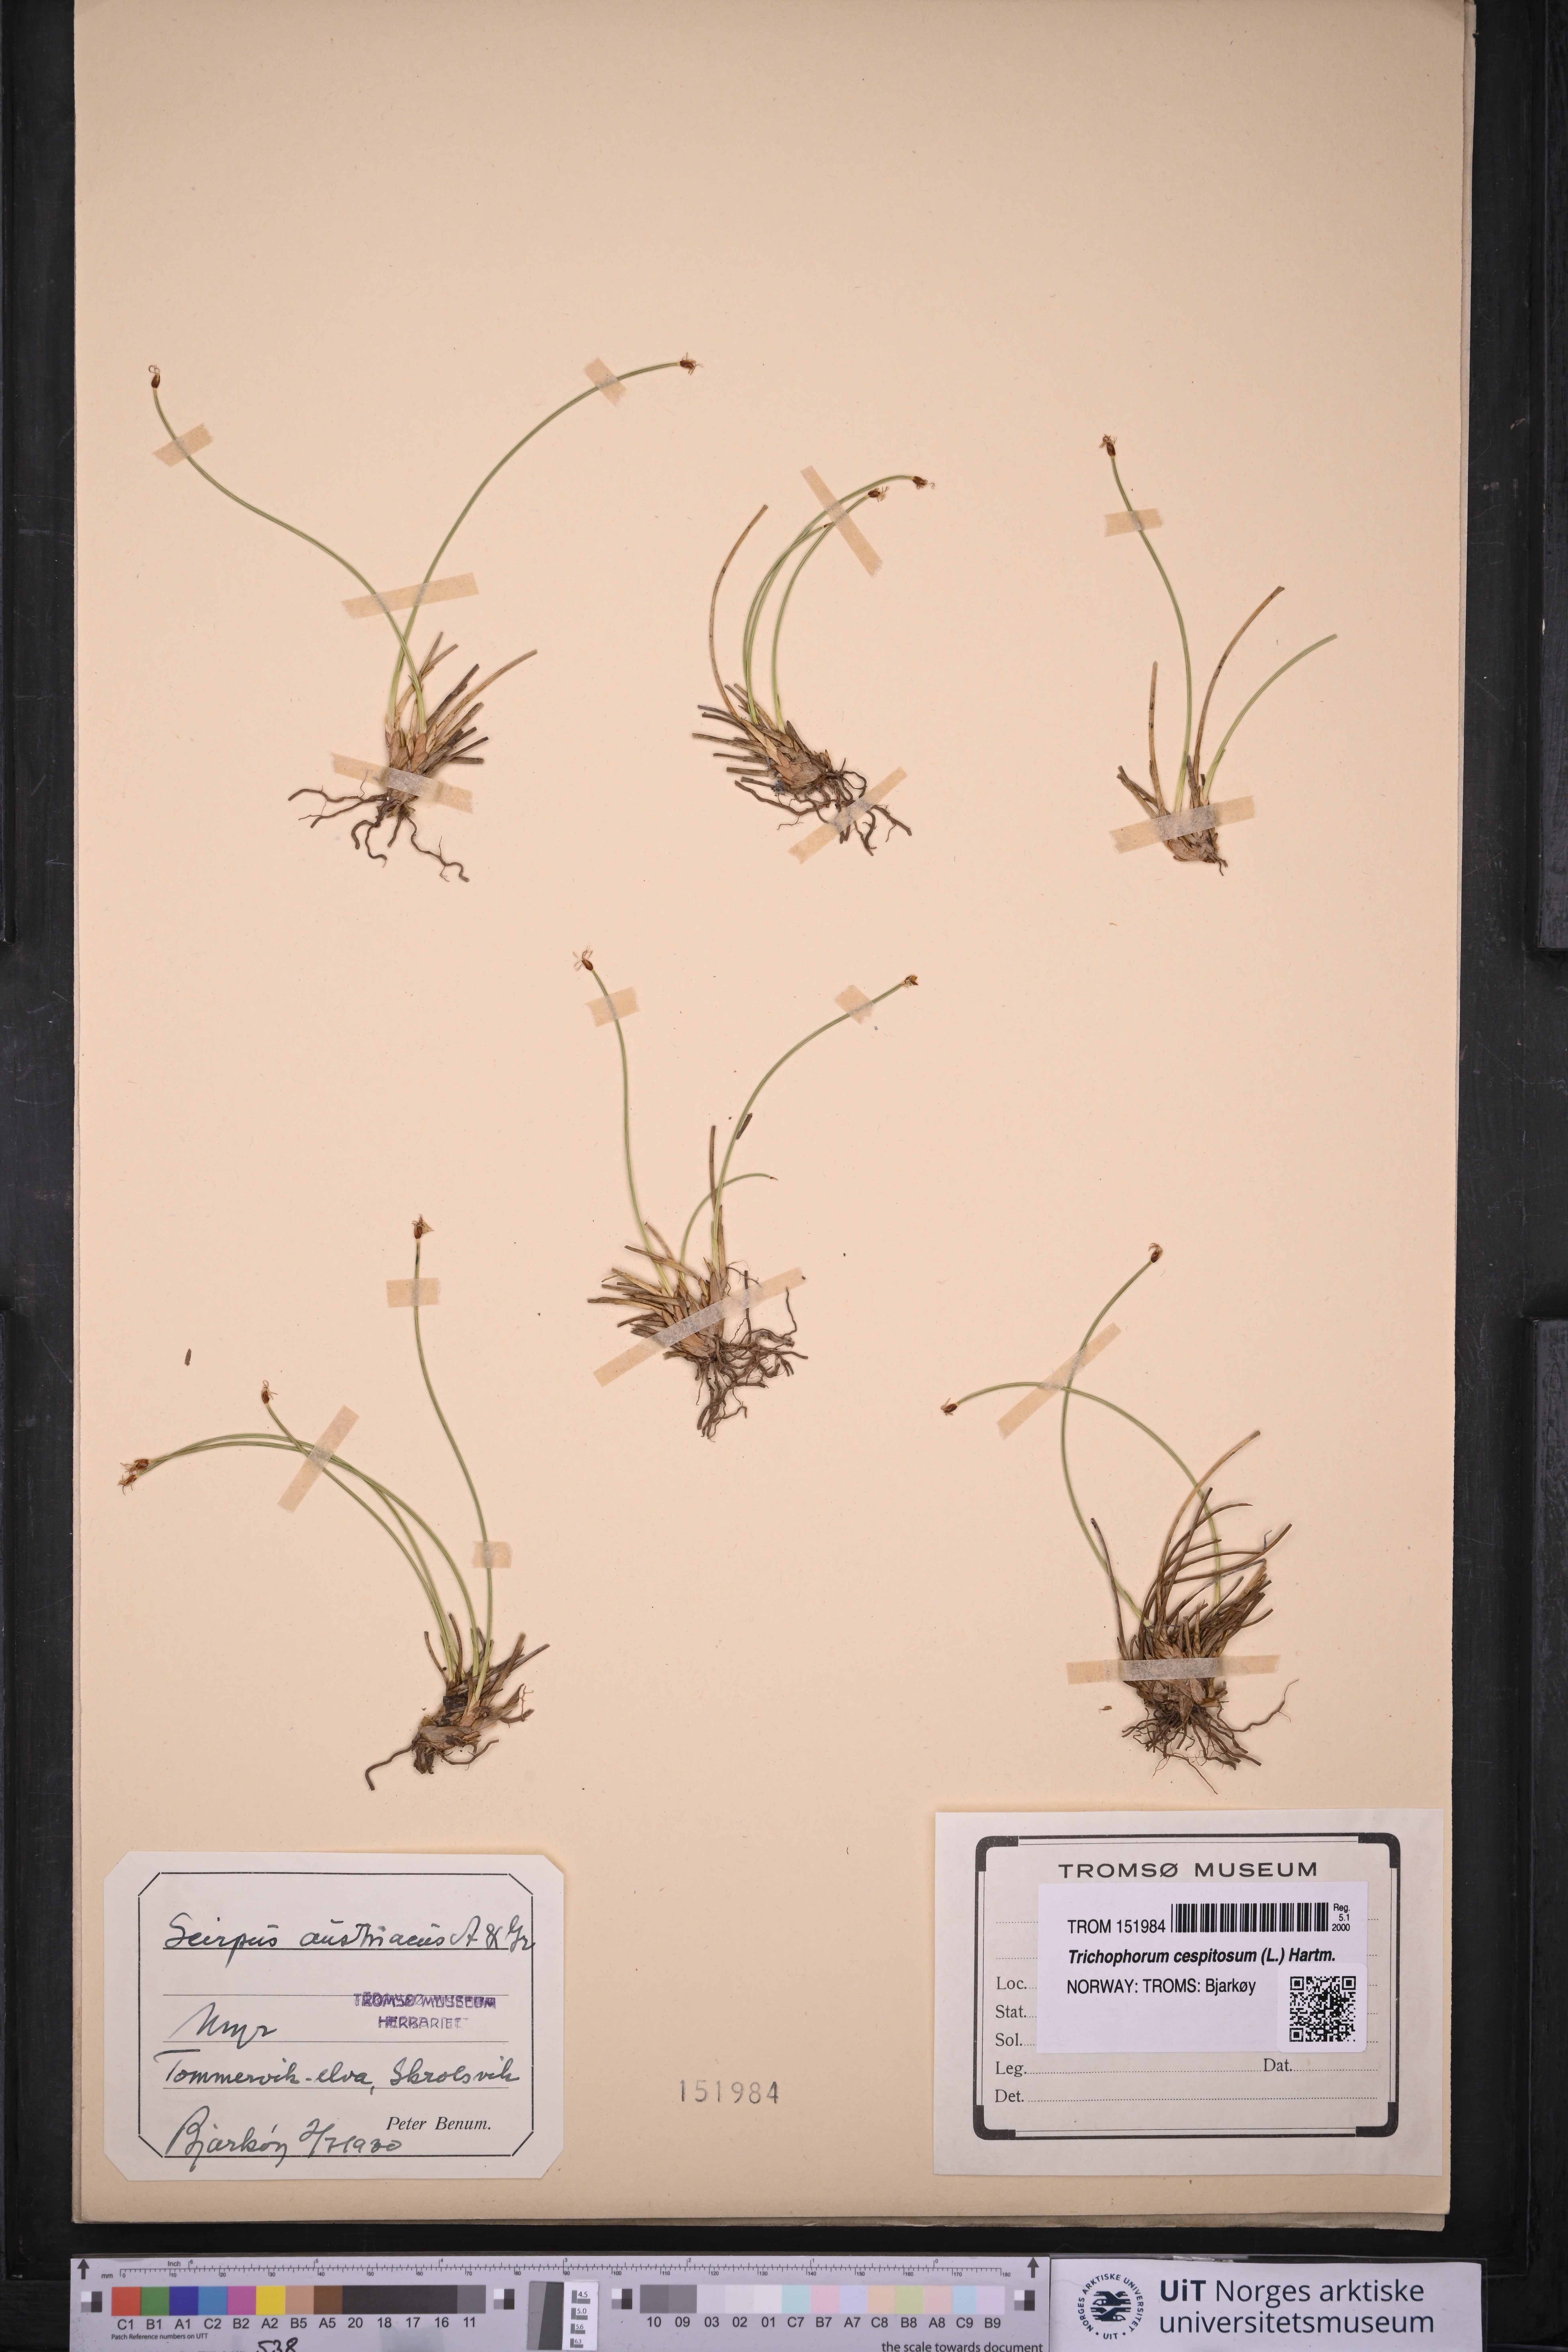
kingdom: Plantae
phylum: Tracheophyta
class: Liliopsida
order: Poales
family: Cyperaceae
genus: Trichophorum
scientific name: Trichophorum cespitosum
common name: Cespitose bulrush
